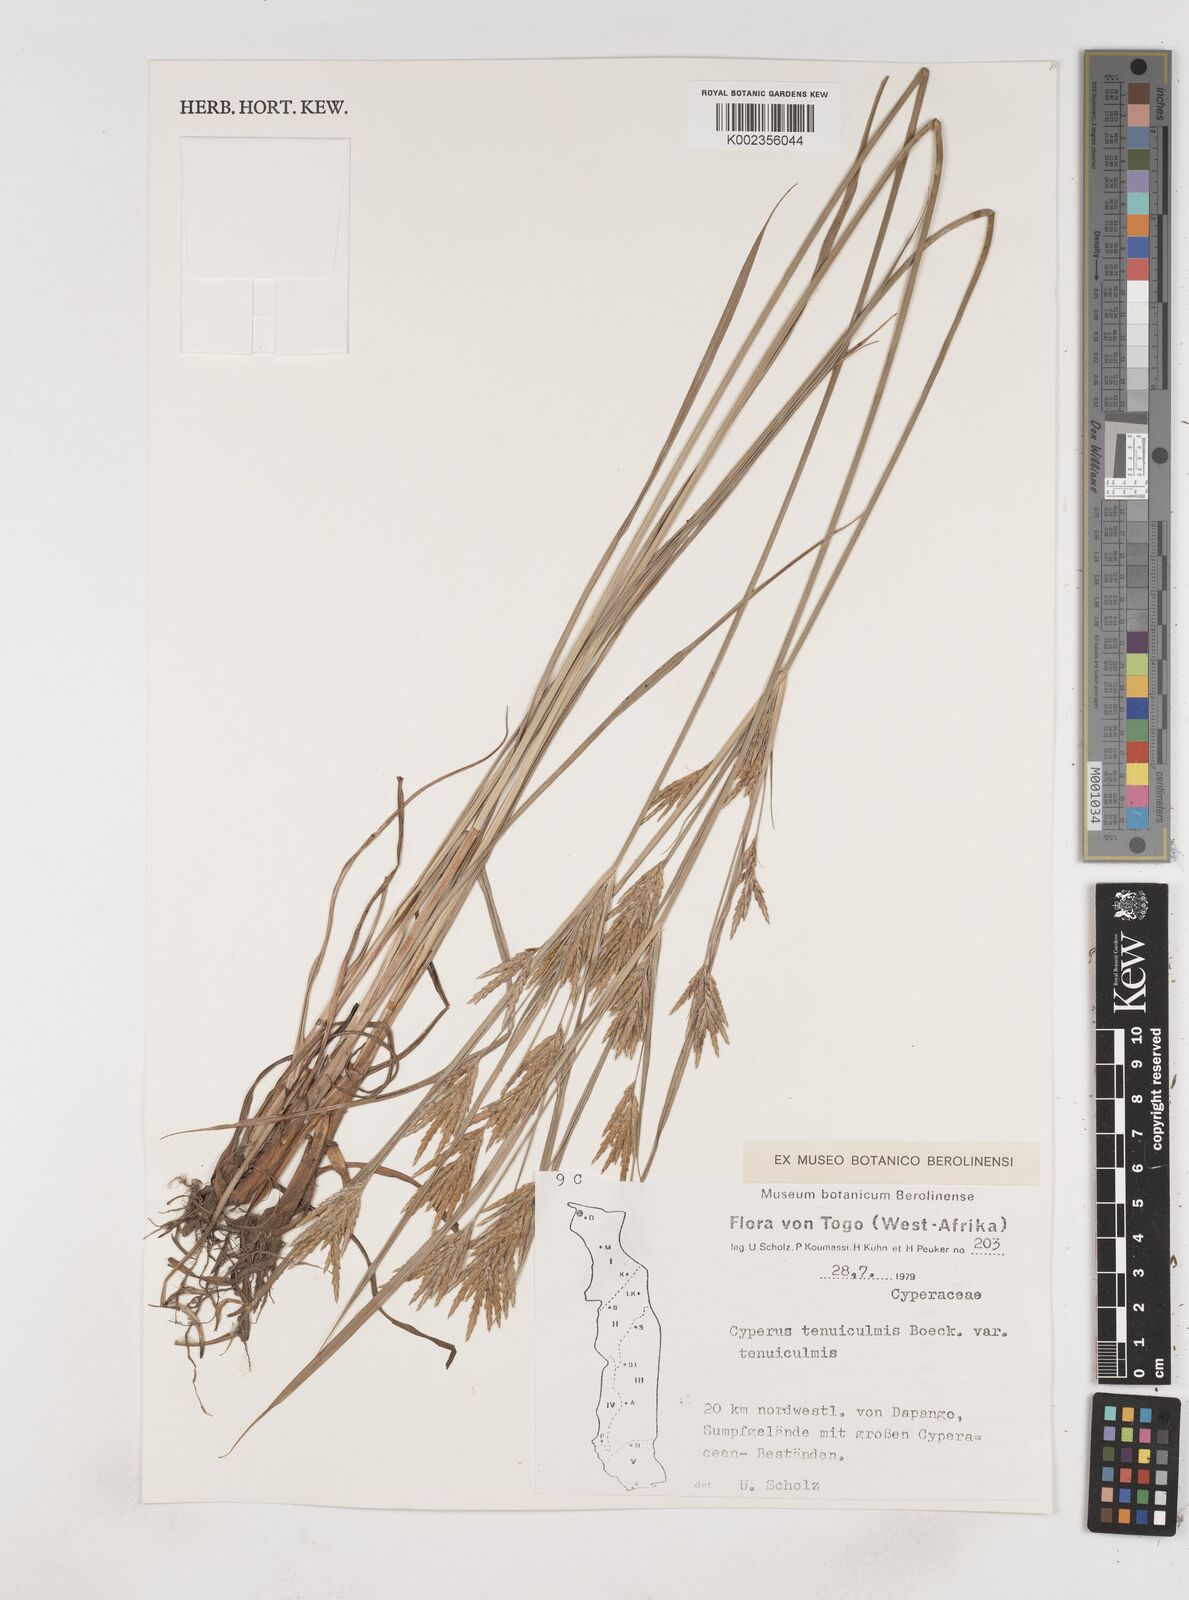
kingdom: Plantae
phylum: Tracheophyta
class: Liliopsida
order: Poales
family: Cyperaceae
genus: Cyperus
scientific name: Cyperus tenuiculmis
